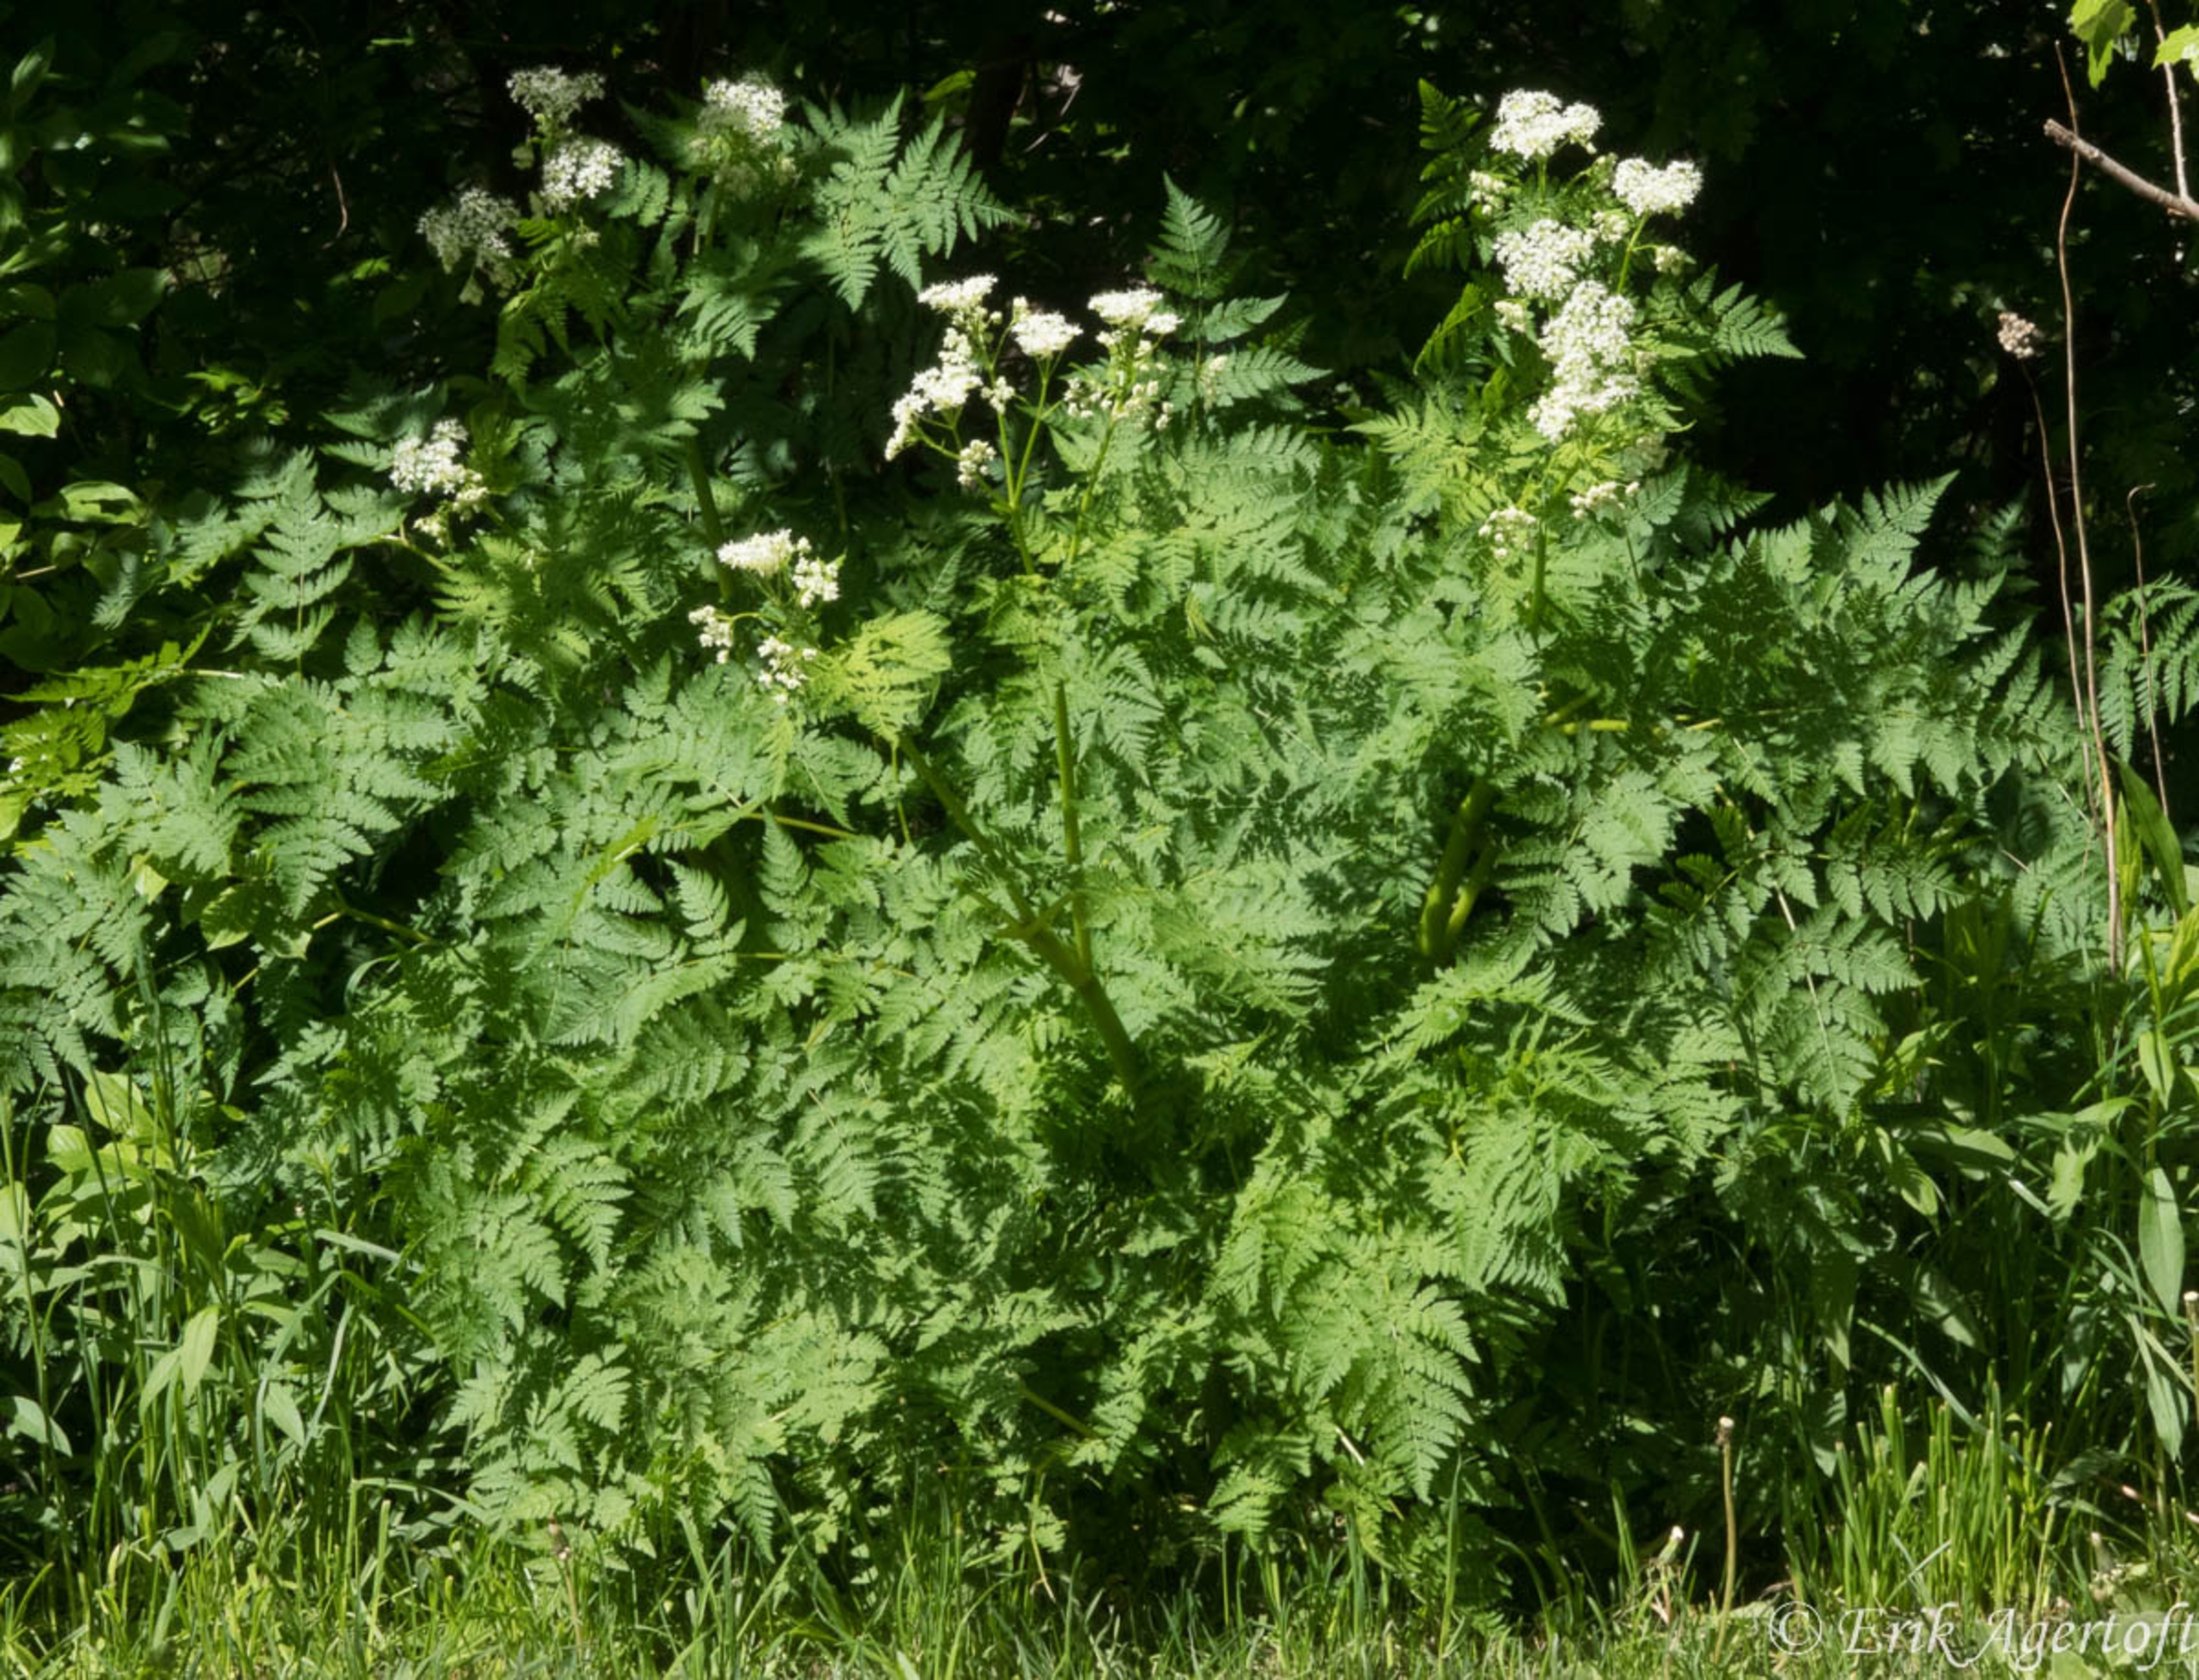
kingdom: Plantae
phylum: Tracheophyta
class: Magnoliopsida
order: Apiales
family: Apiaceae
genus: Myrrhis
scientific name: Myrrhis odorata
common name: Sødskærm
